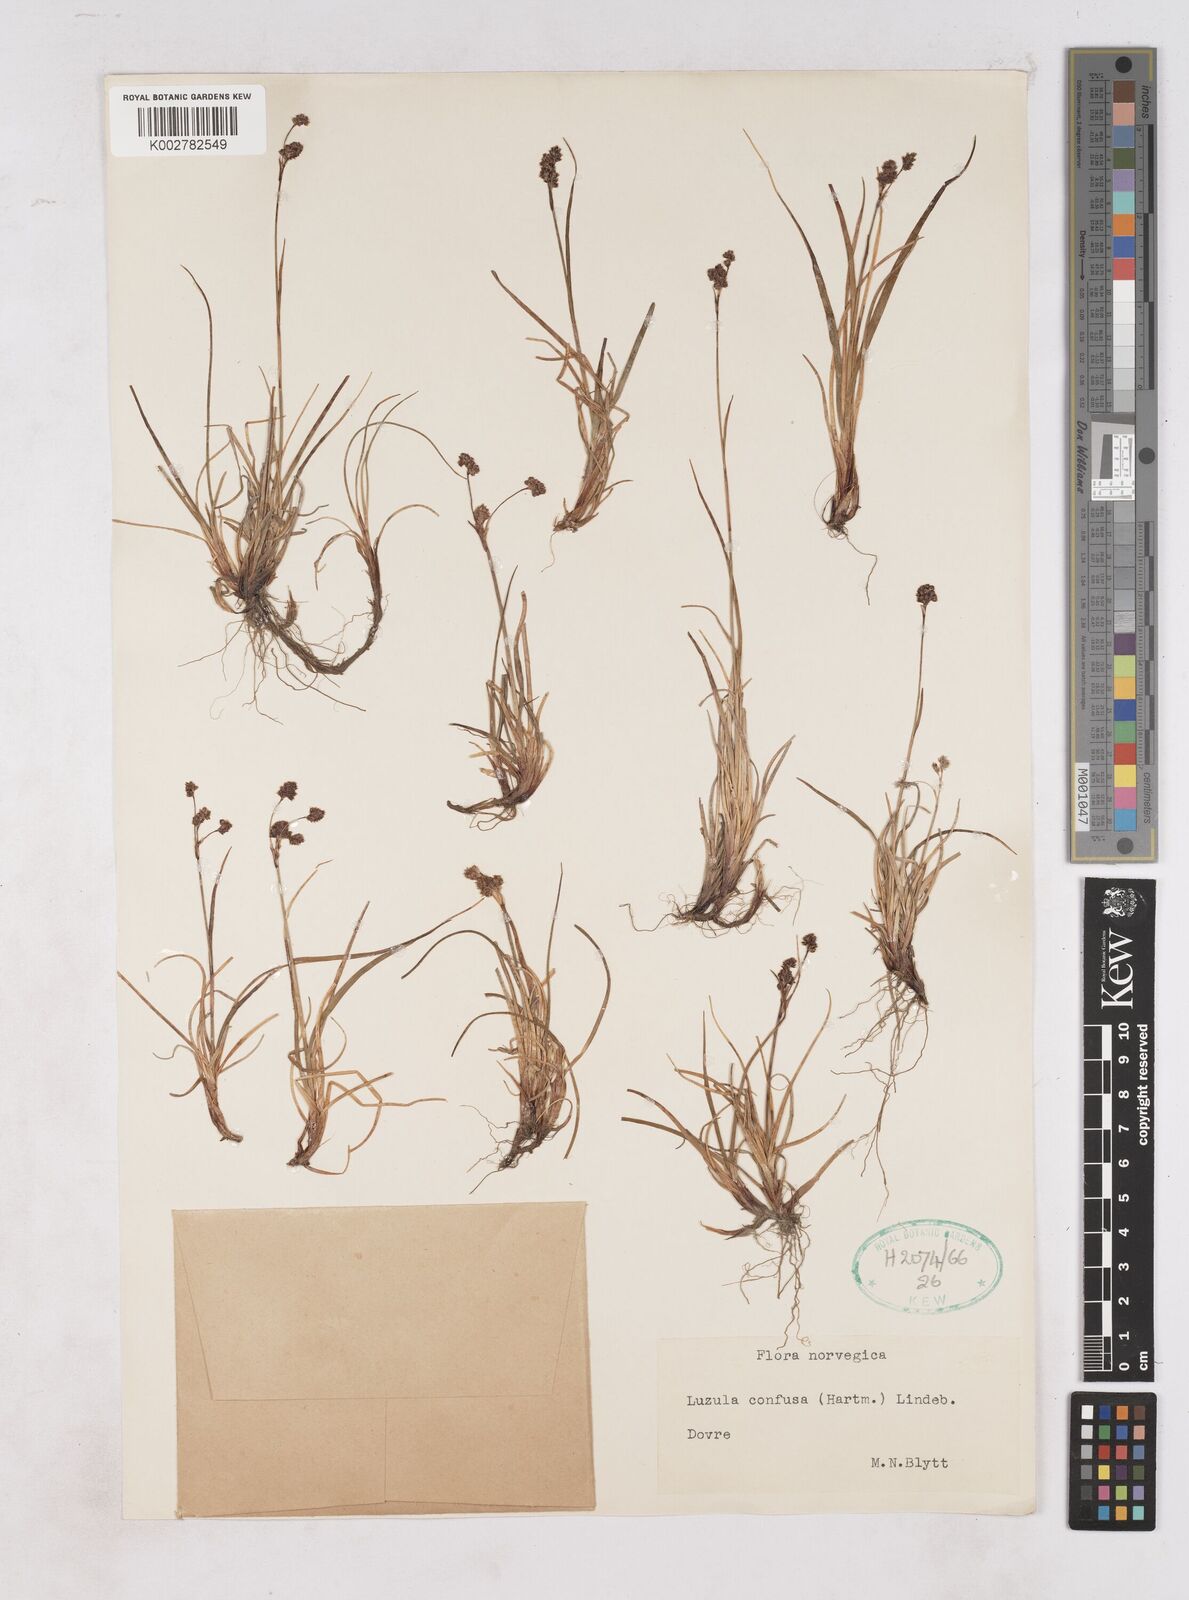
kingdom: Plantae
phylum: Tracheophyta
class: Liliopsida
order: Poales
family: Juncaceae
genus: Luzula
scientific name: Luzula confusa
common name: Northern wood rush
